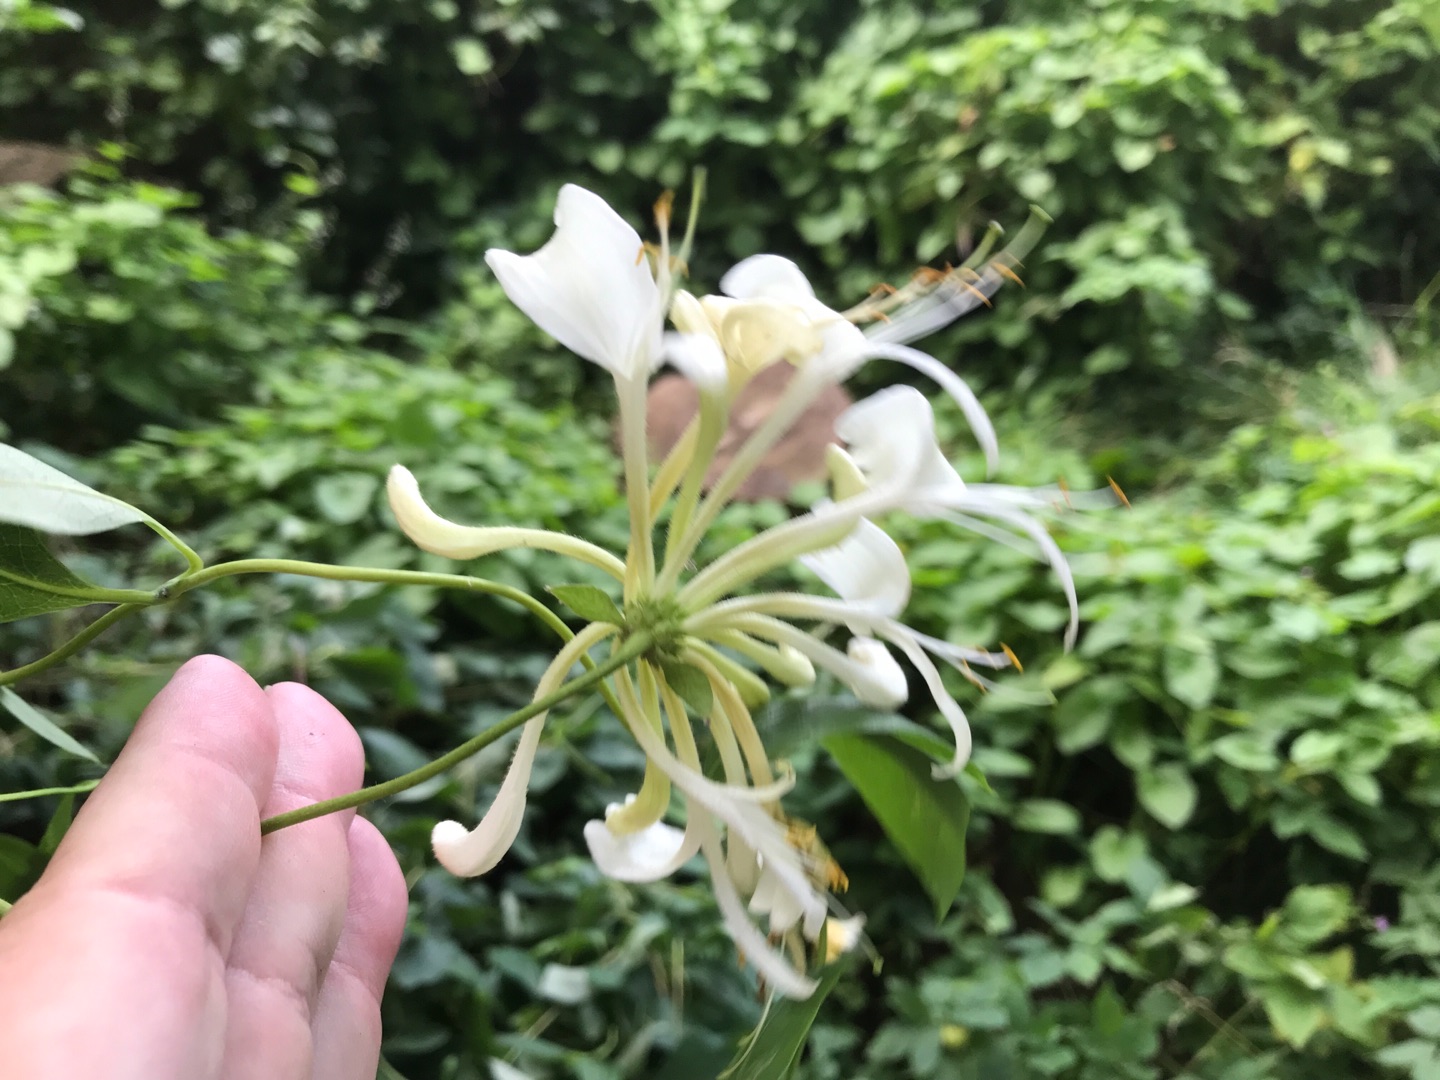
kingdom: Plantae
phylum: Tracheophyta
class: Magnoliopsida
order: Dipsacales
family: Caprifoliaceae
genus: Lonicera
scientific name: Lonicera periclymenum
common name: Almindelig gedeblad
